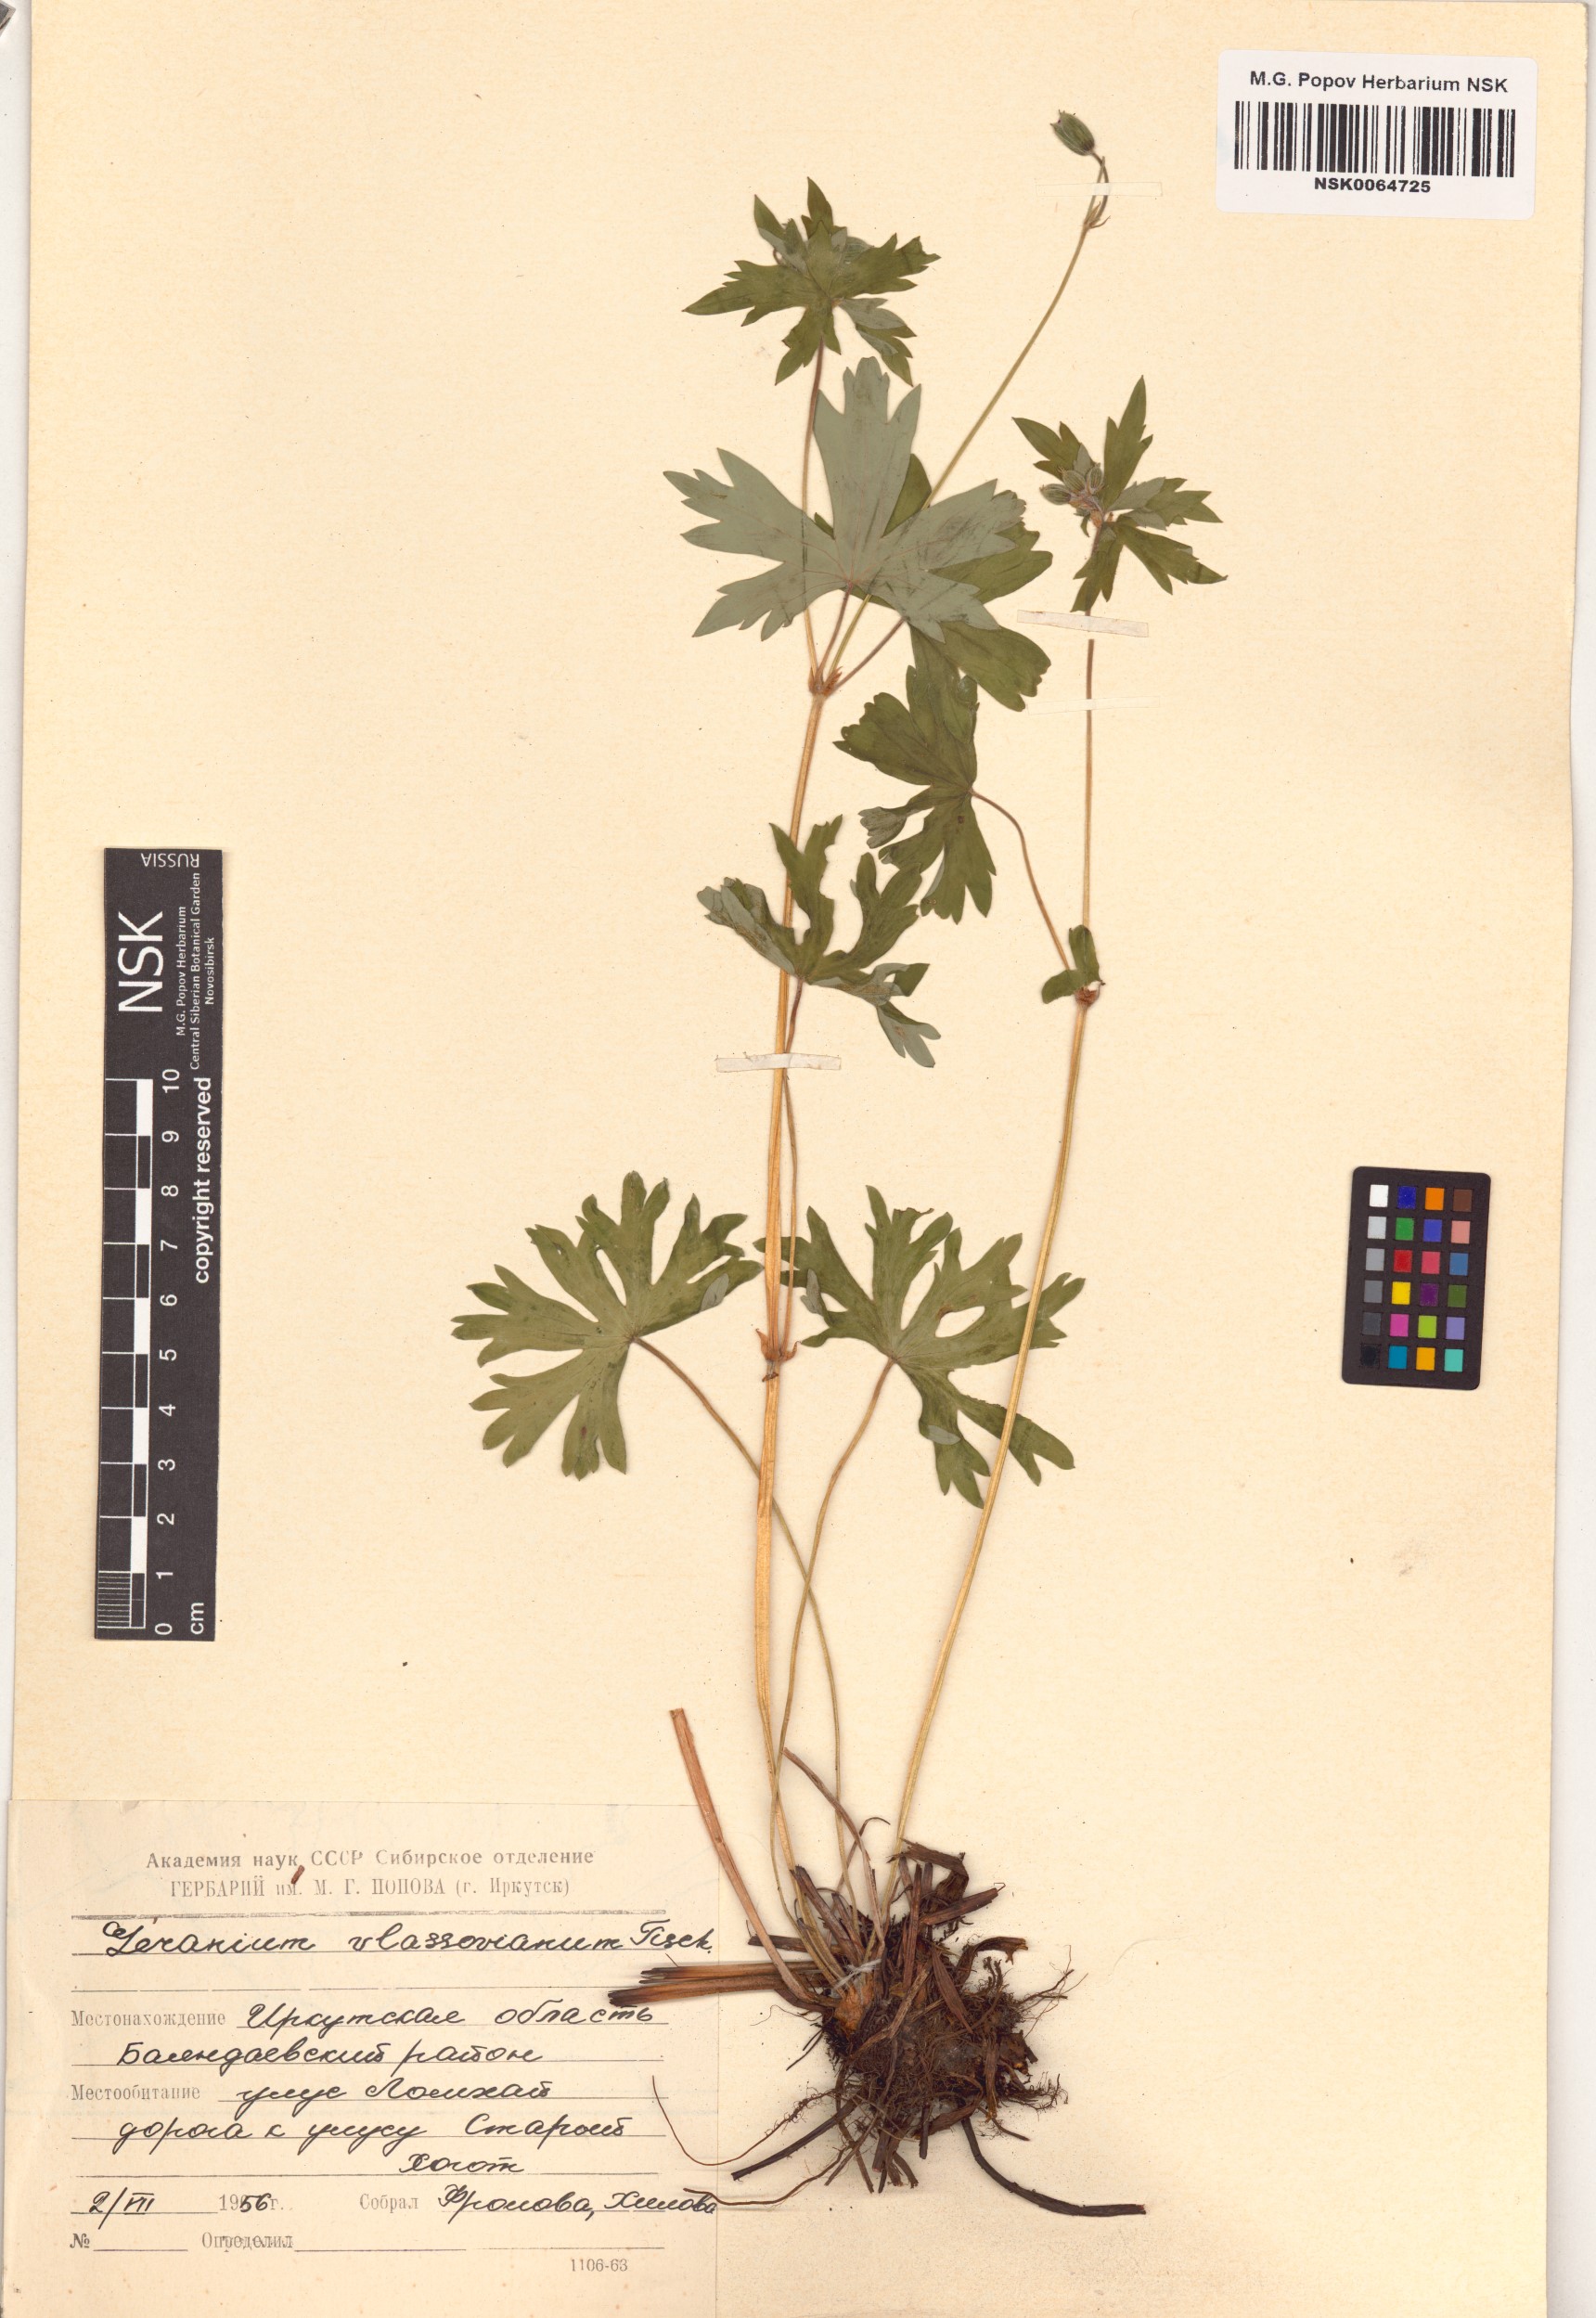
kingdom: Plantae
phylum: Tracheophyta
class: Magnoliopsida
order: Geraniales
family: Geraniaceae
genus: Geranium
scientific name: Geranium wlassovianum
